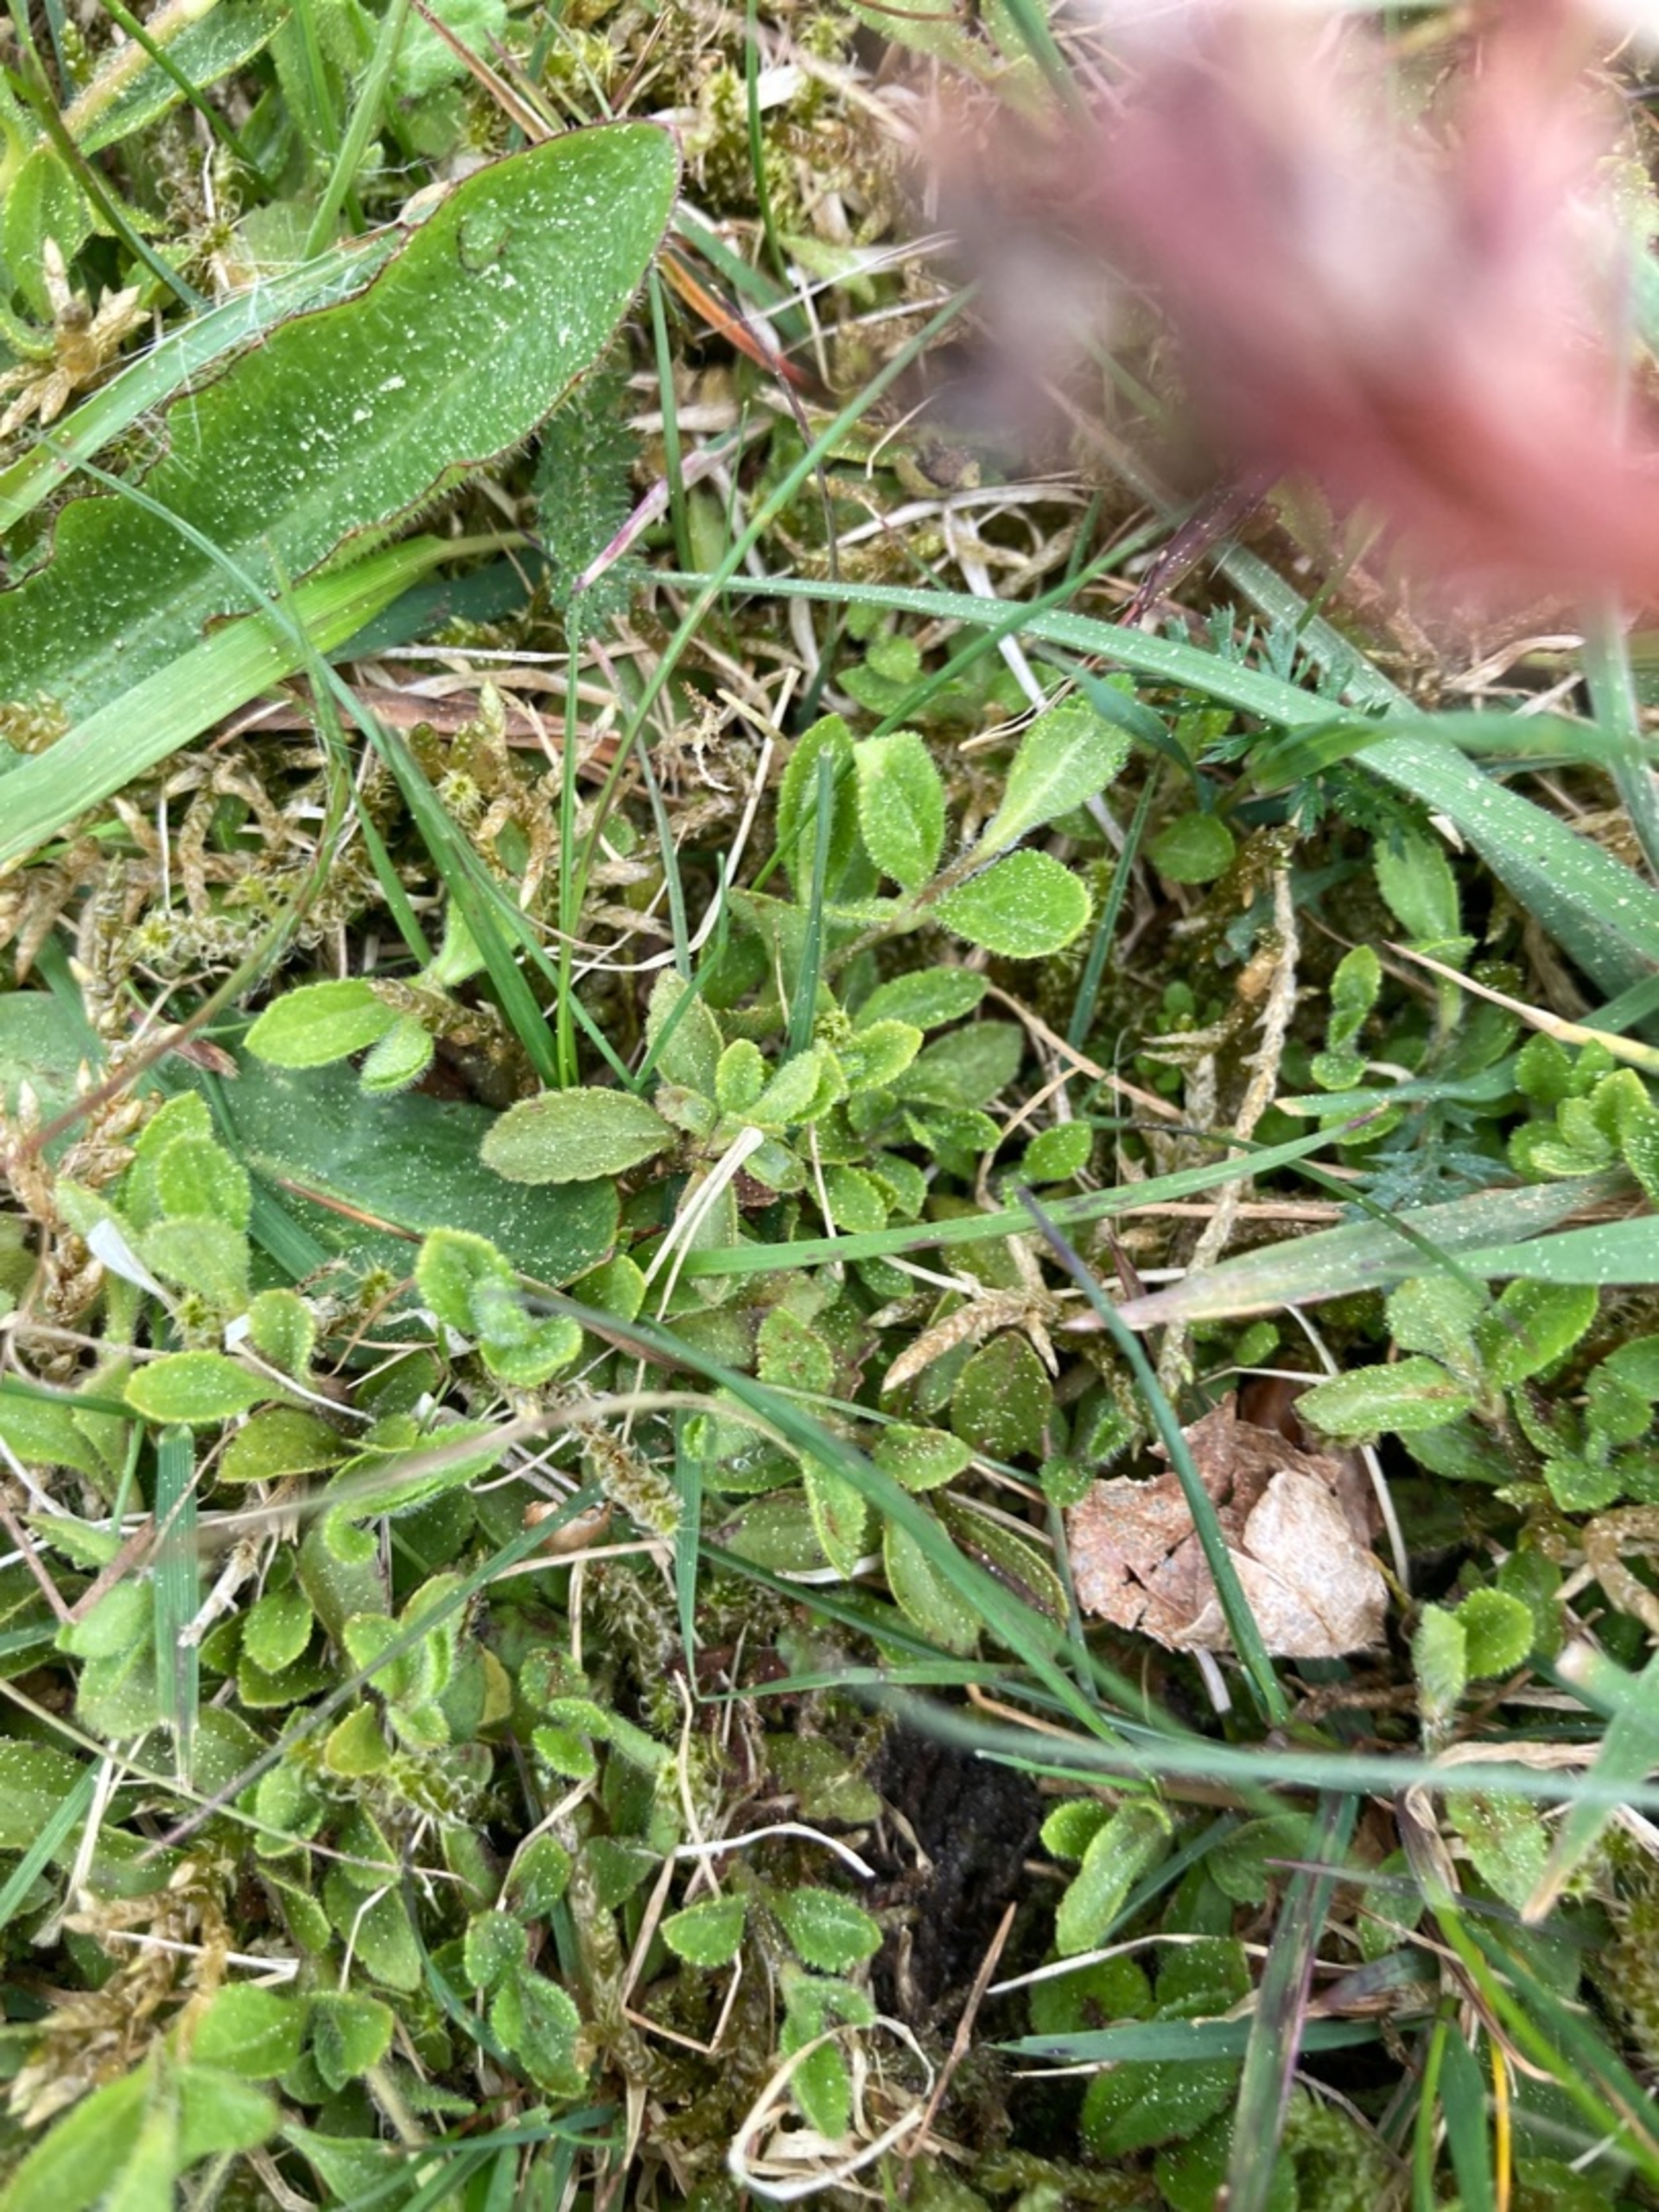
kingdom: Plantae
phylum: Tracheophyta
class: Magnoliopsida
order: Lamiales
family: Plantaginaceae
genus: Veronica
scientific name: Veronica officinalis
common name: Læge-ærenpris
